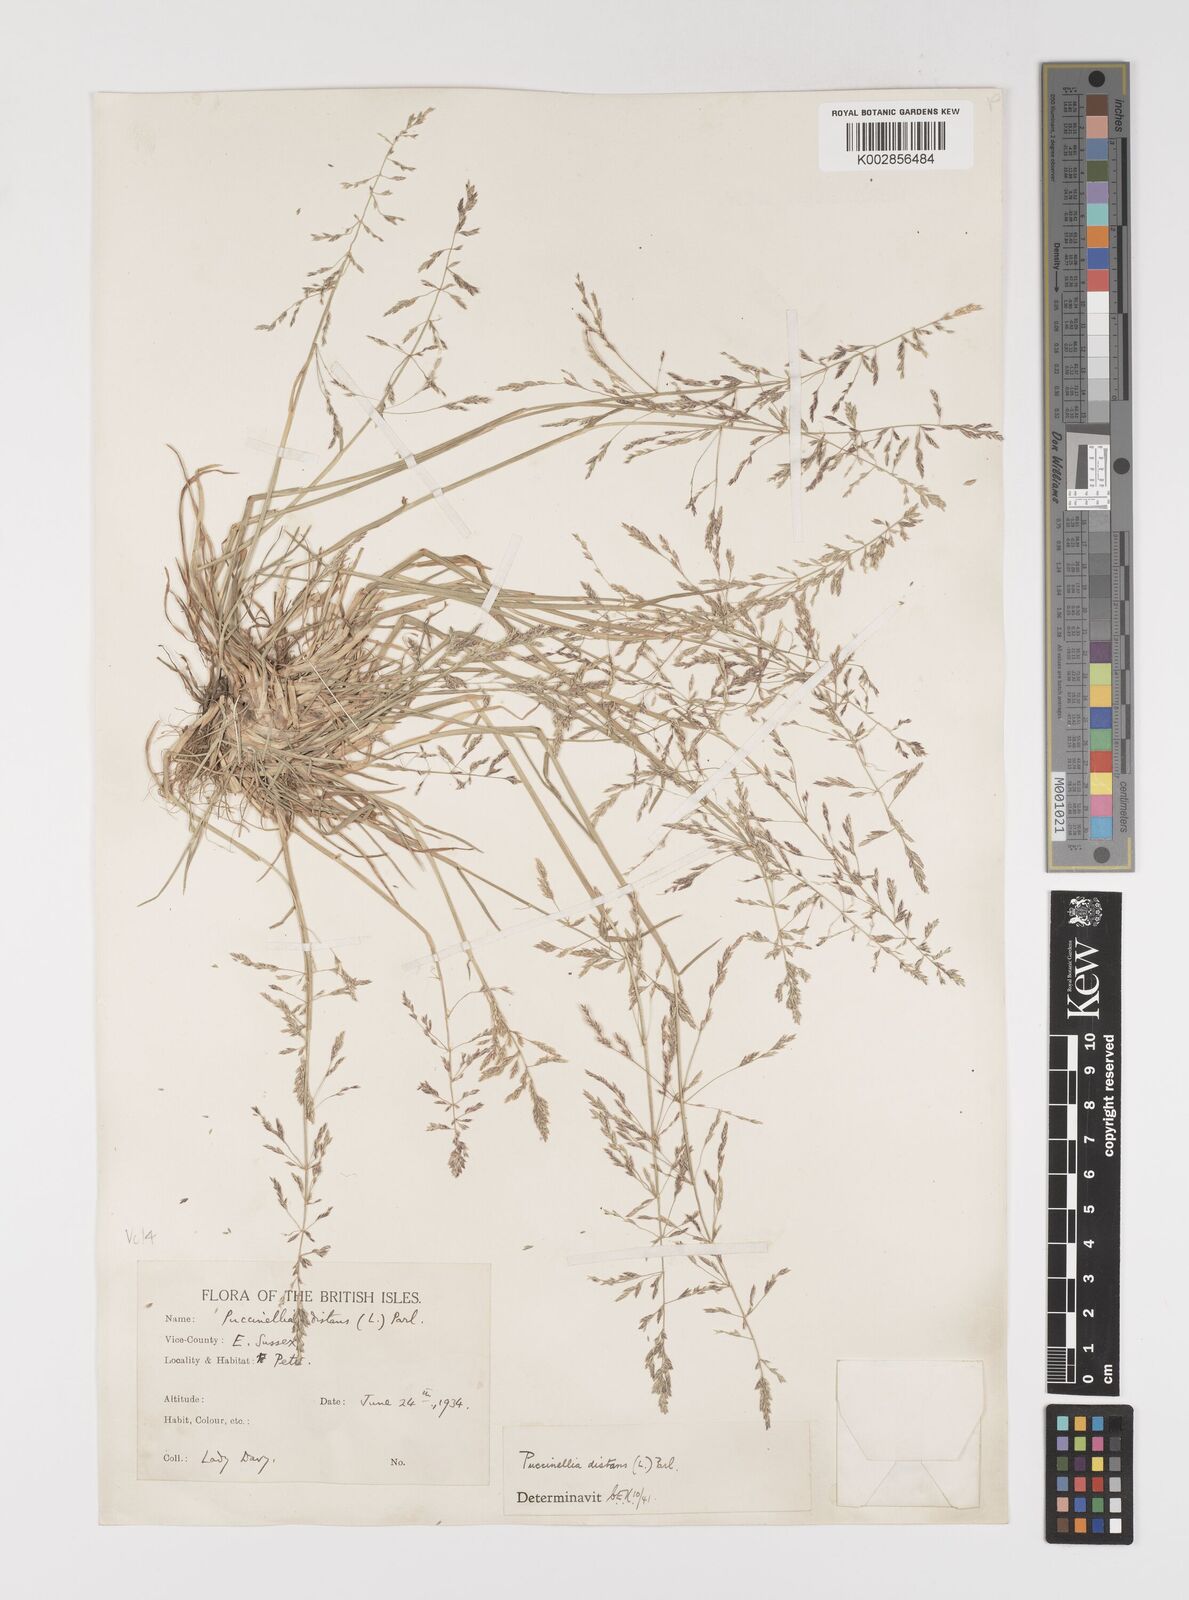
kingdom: Plantae
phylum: Tracheophyta
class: Liliopsida
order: Poales
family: Poaceae
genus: Puccinellia
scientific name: Puccinellia distans
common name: Weeping alkaligrass
